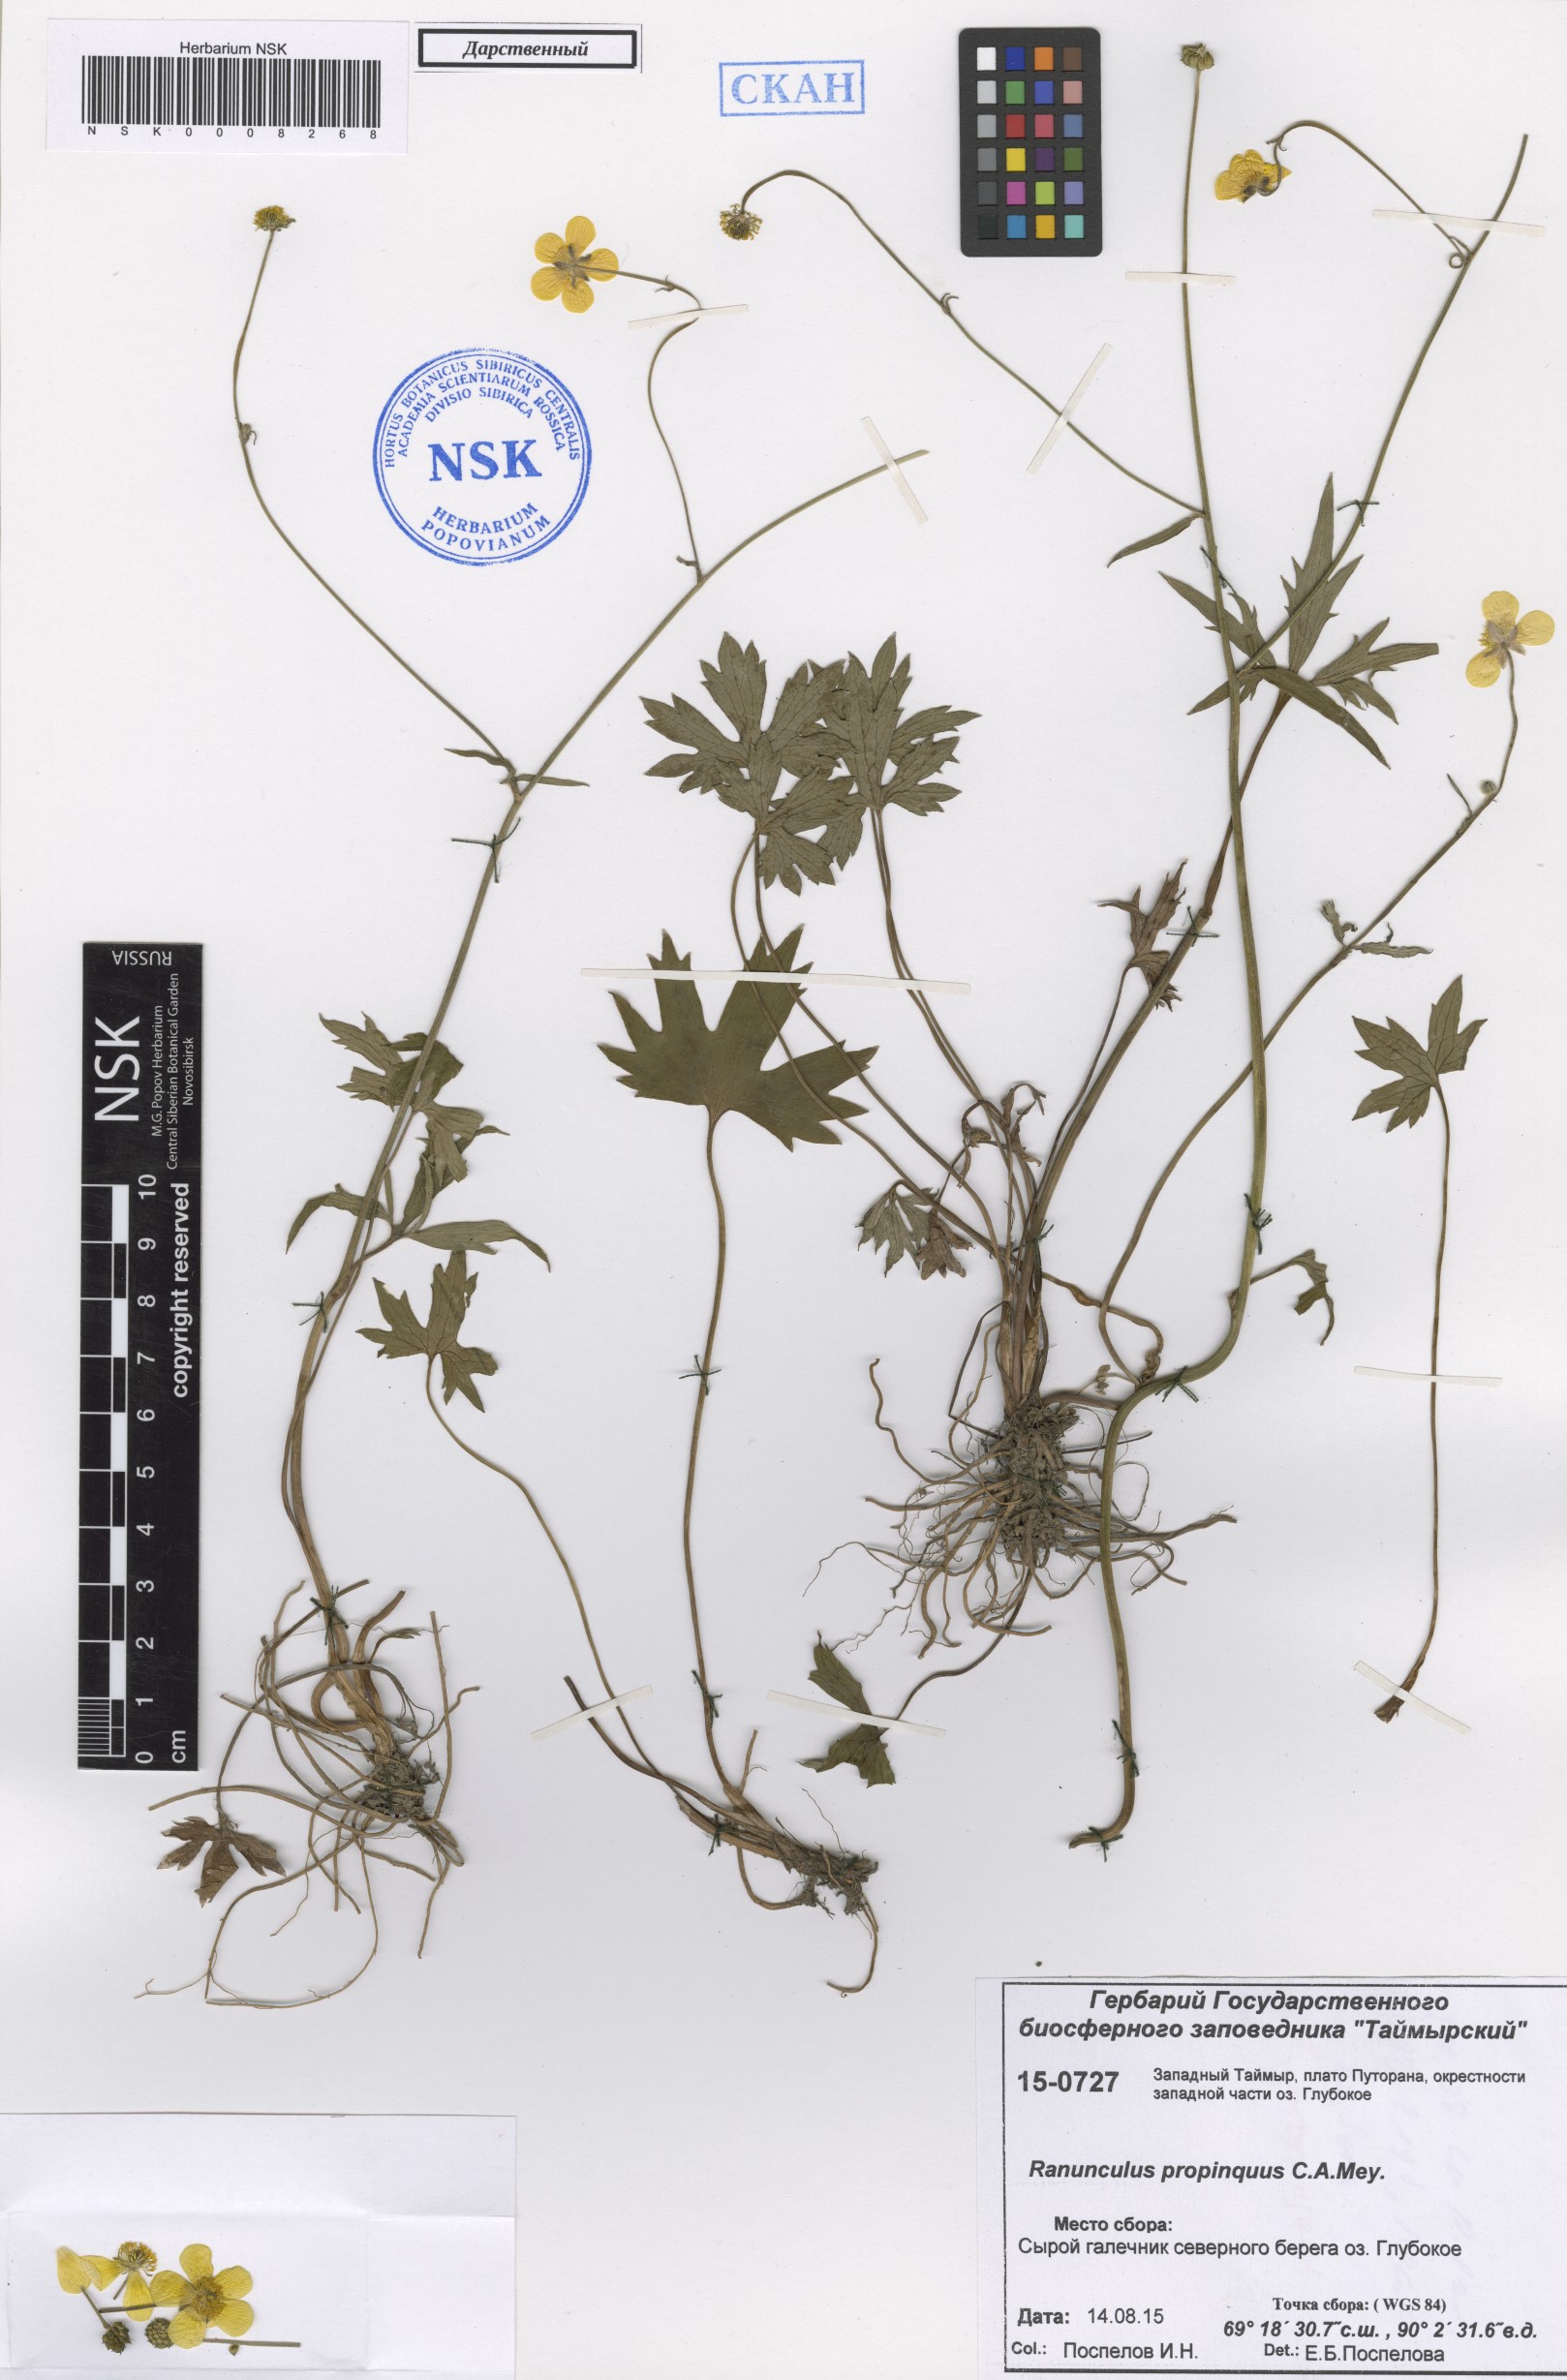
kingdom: Plantae
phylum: Tracheophyta
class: Magnoliopsida
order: Ranunculales
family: Ranunculaceae
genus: Ranunculus
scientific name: Ranunculus propinquus
